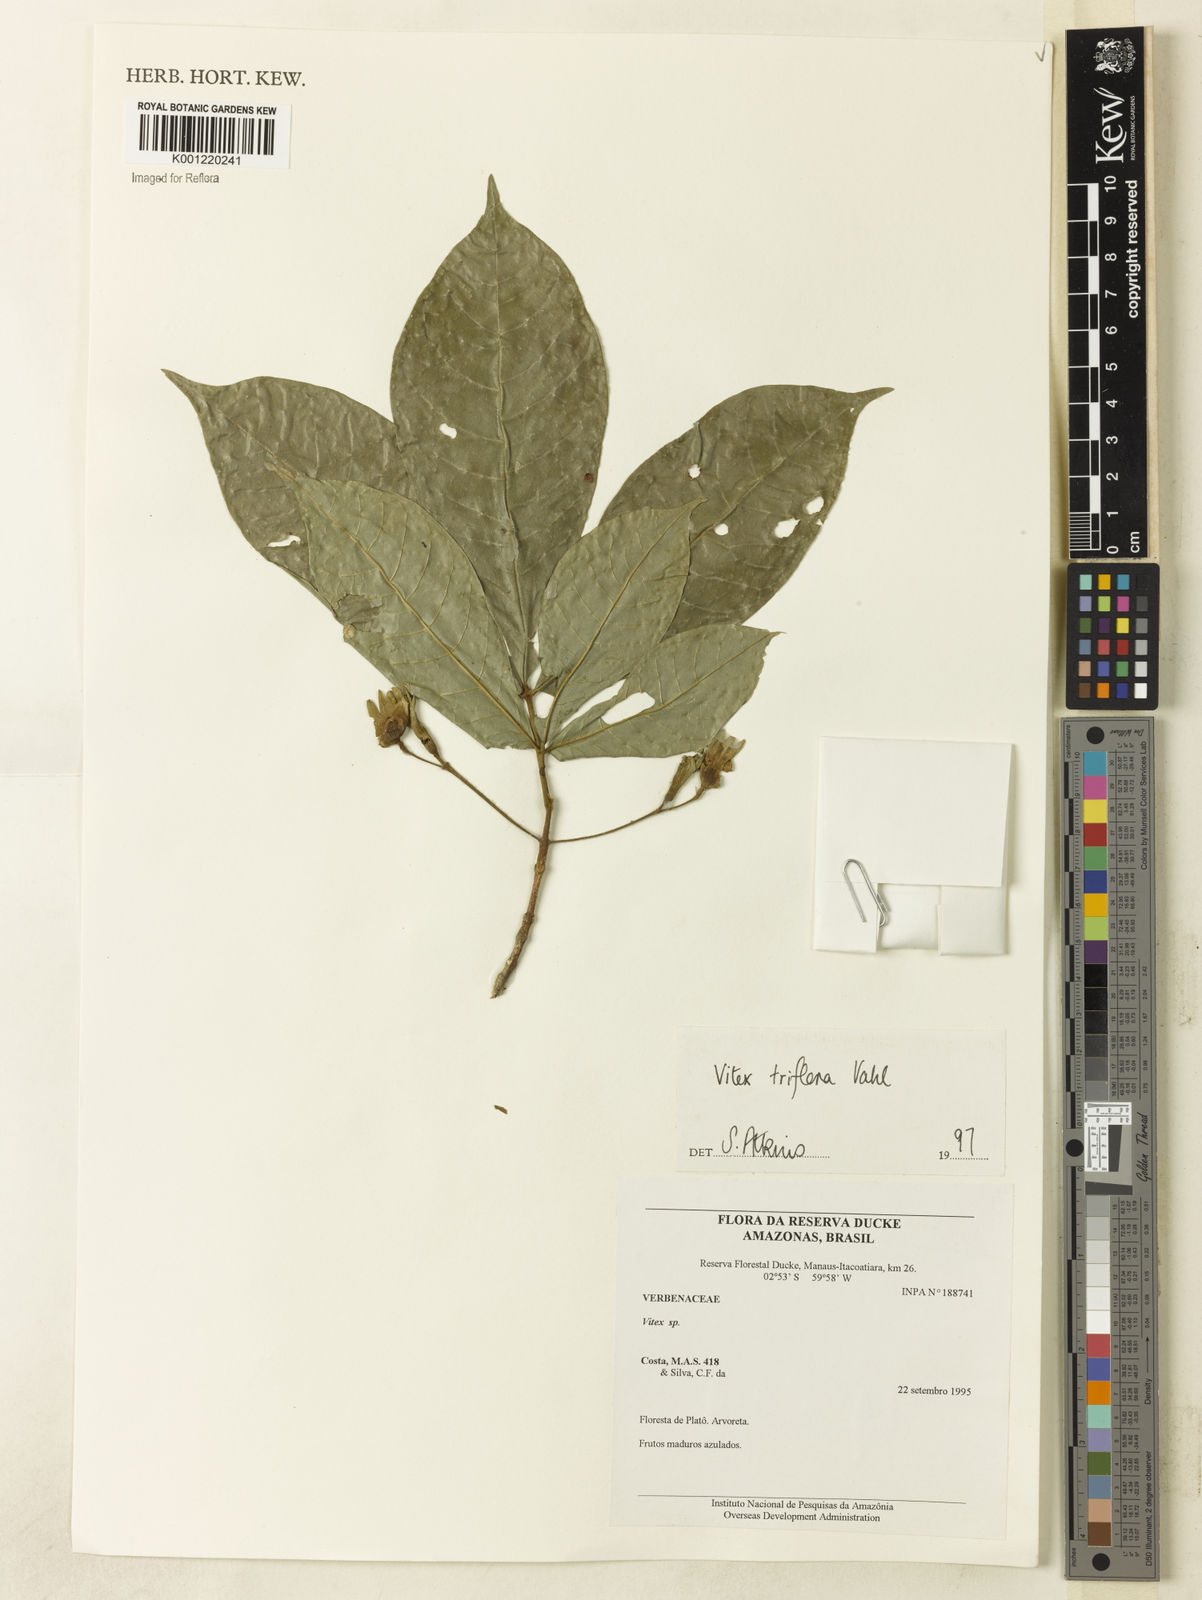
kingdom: Plantae
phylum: Tracheophyta
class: Magnoliopsida
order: Lamiales
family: Lamiaceae
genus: Vitex
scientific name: Vitex triflora
